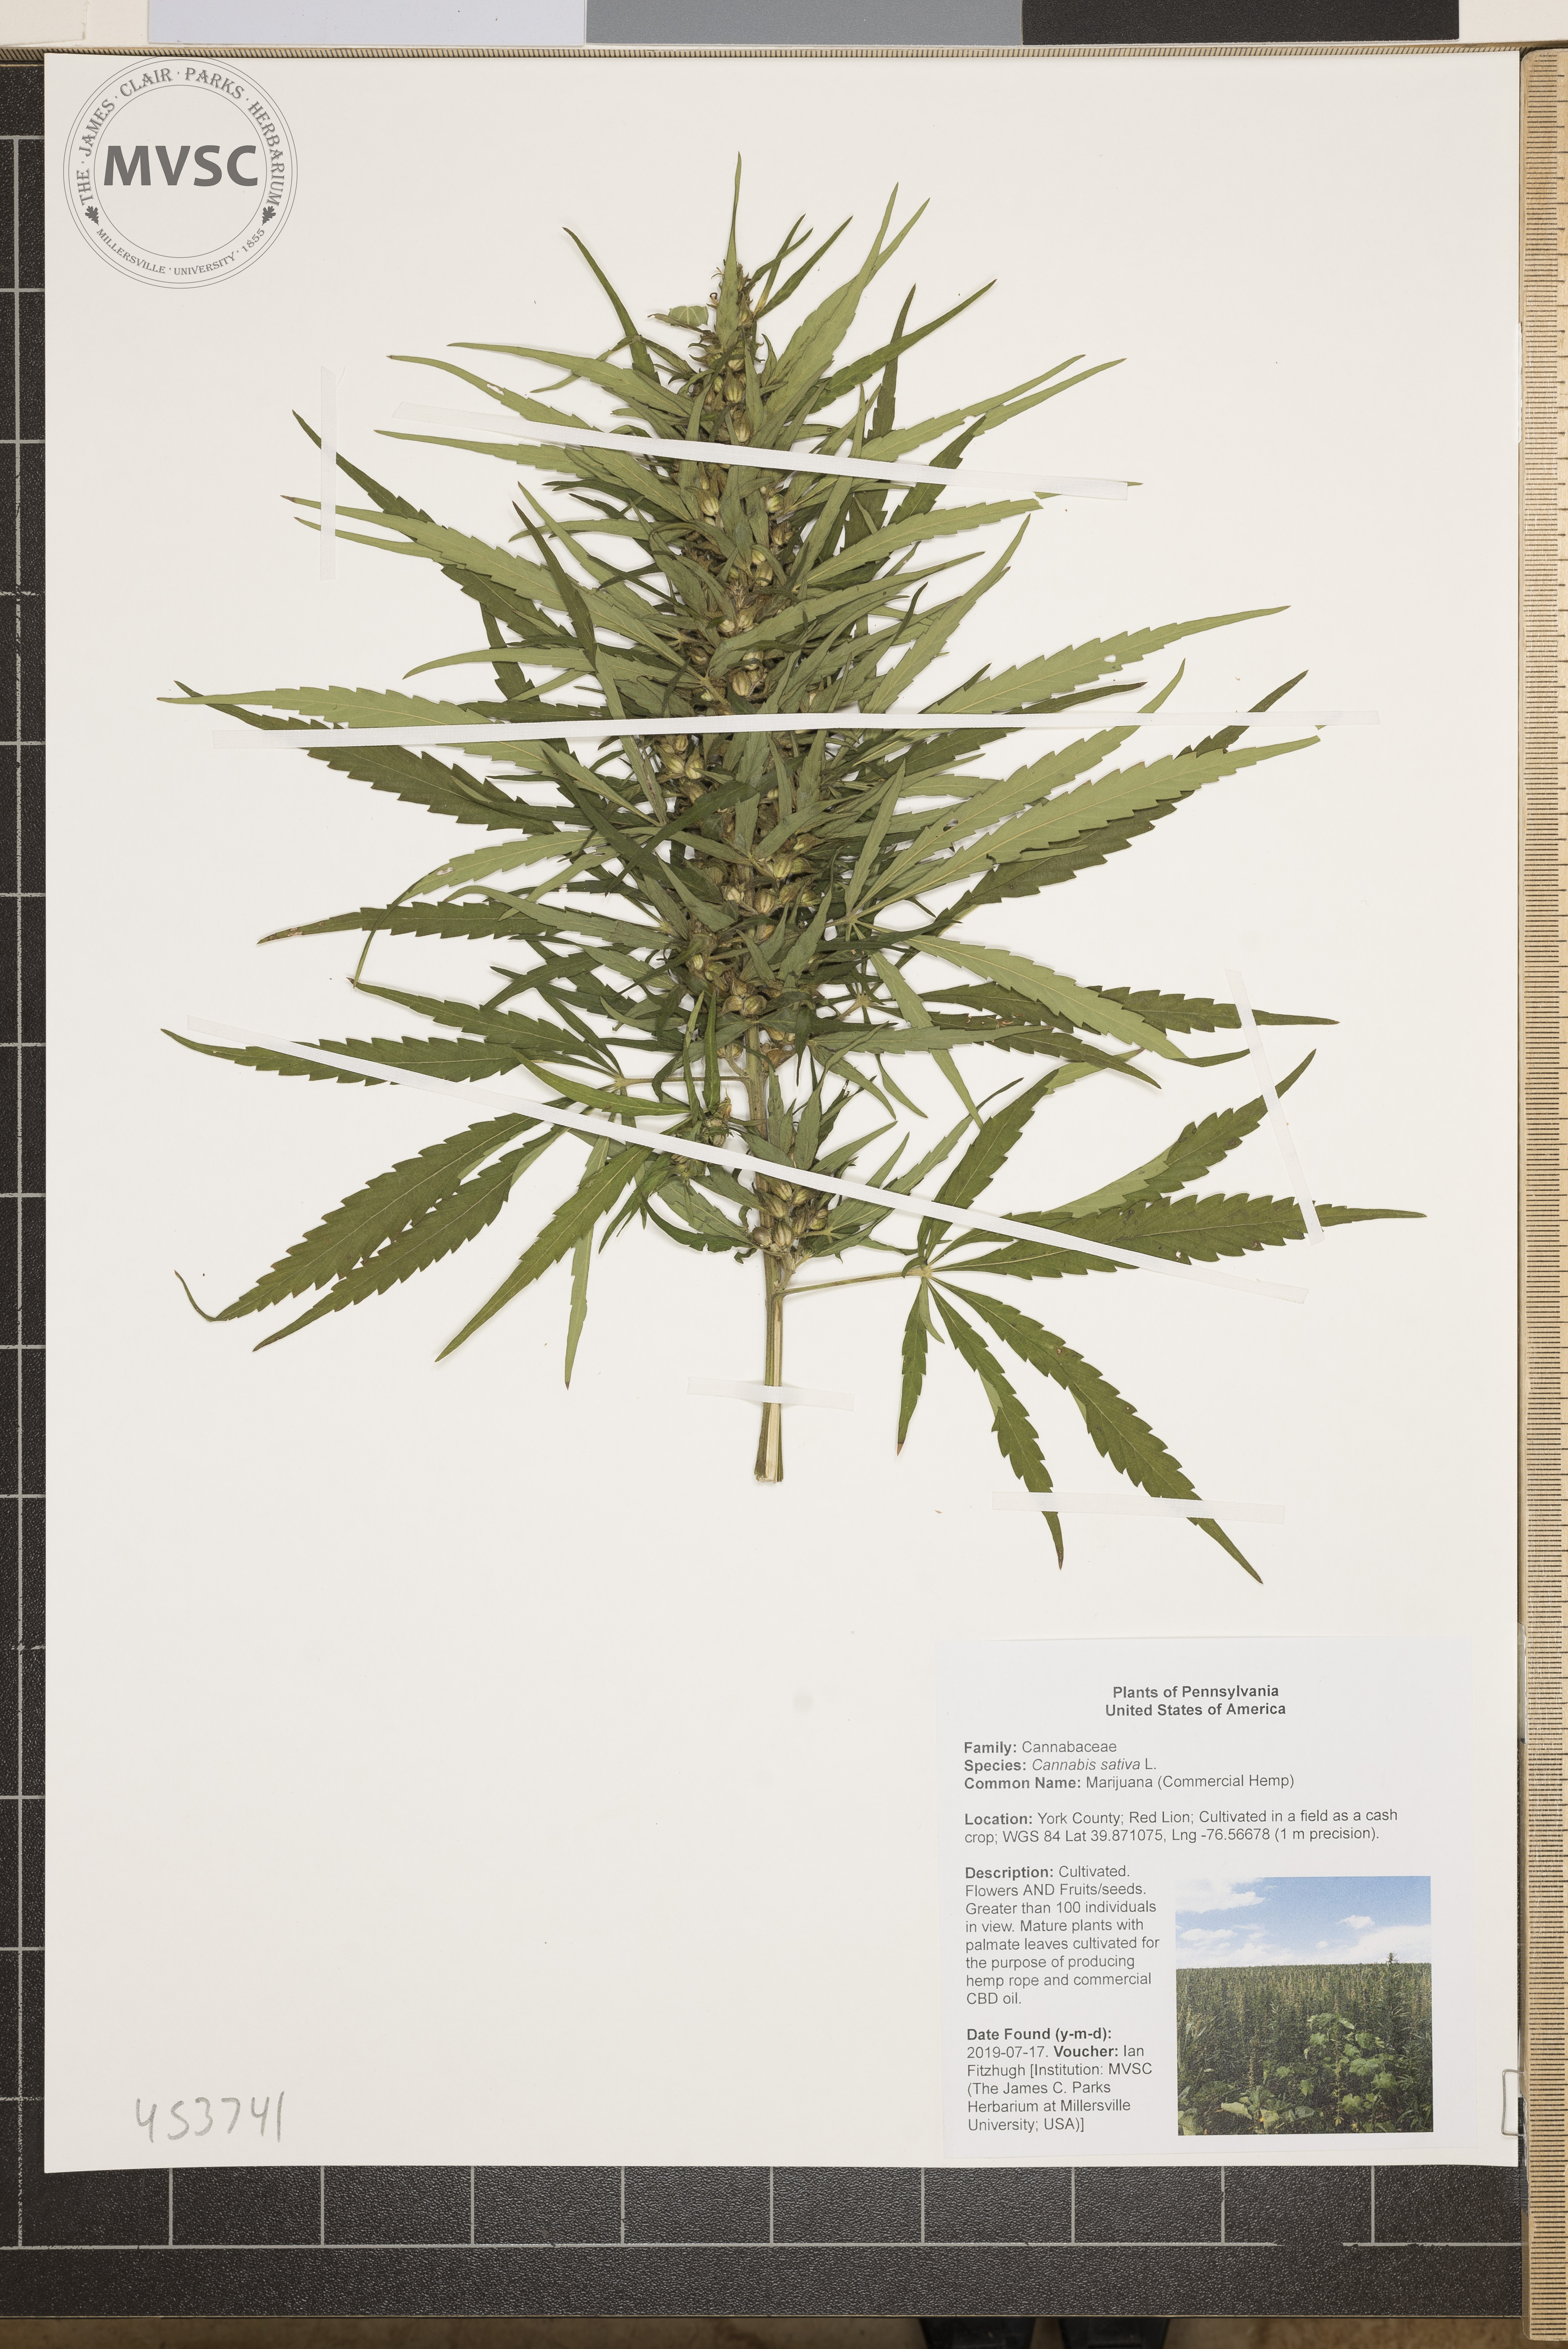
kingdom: Plantae
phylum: Tracheophyta
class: Magnoliopsida
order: Rosales
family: Cannabaceae
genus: Cannabis
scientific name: Cannabis sativa
